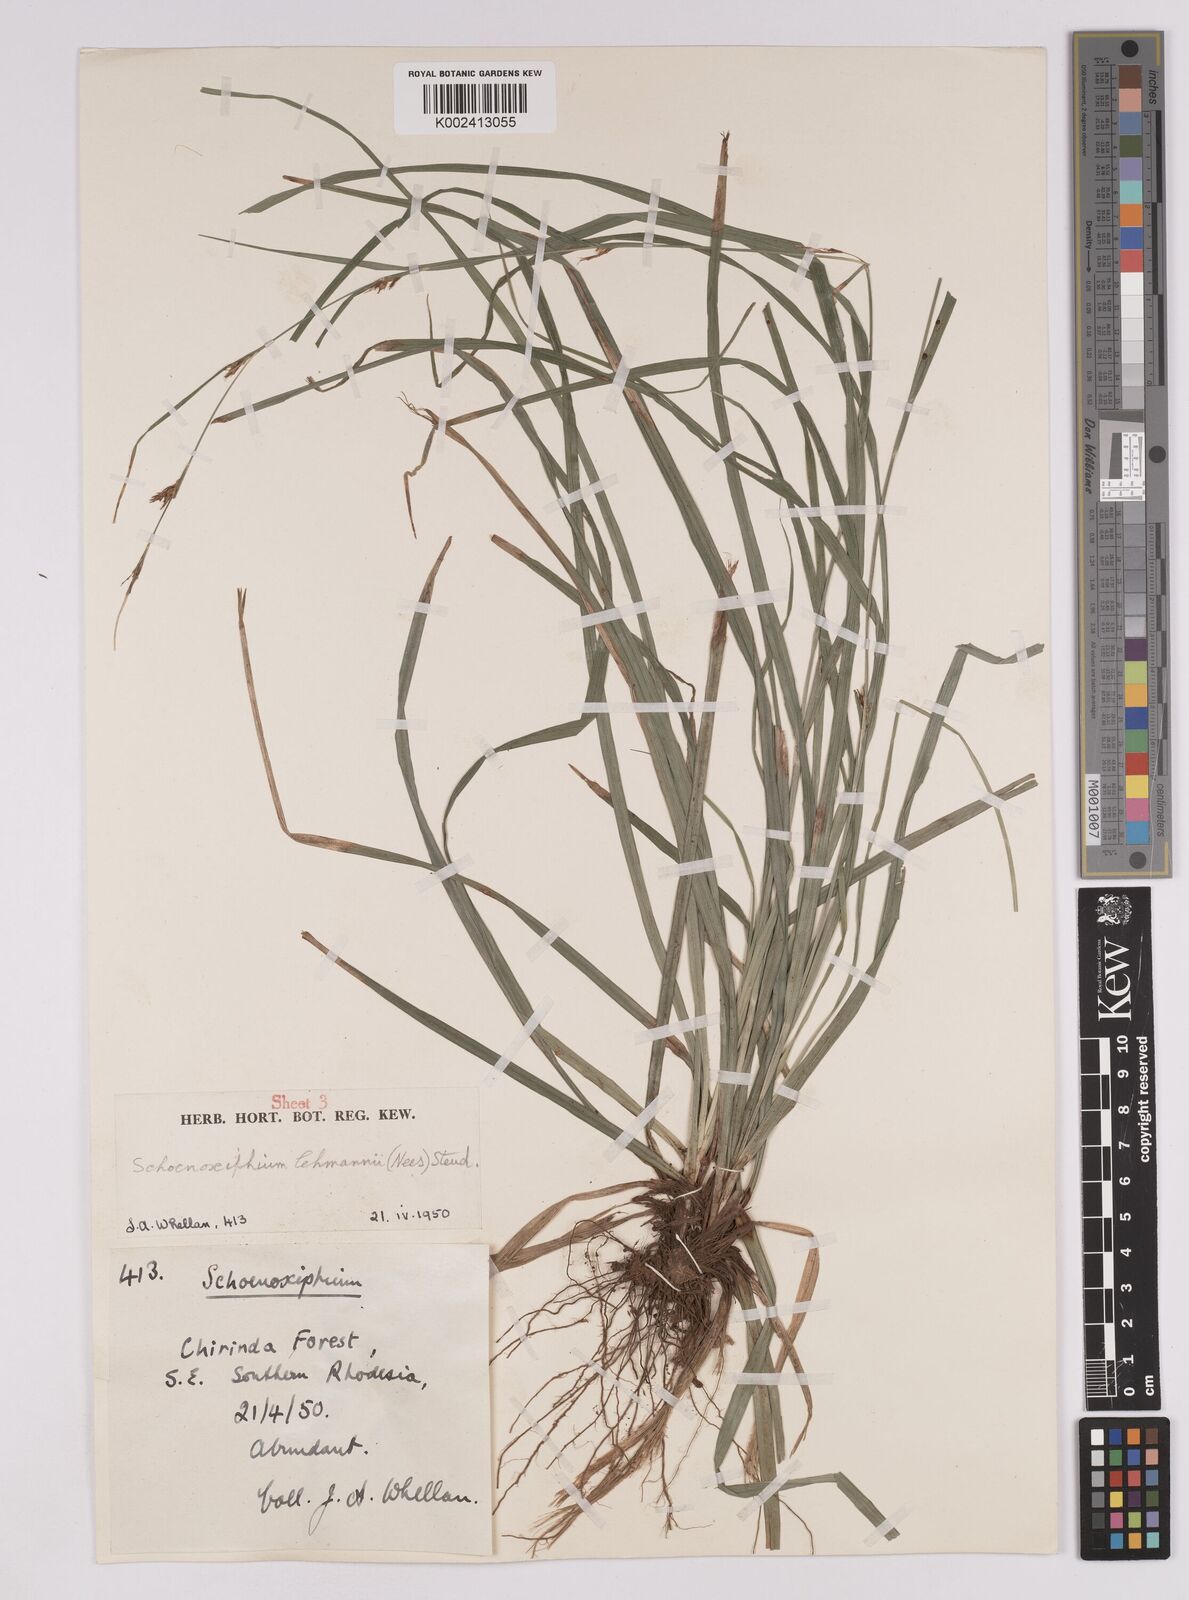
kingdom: Plantae
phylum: Tracheophyta
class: Liliopsida
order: Poales
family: Cyperaceae
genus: Carex
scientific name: Carex uhligii
